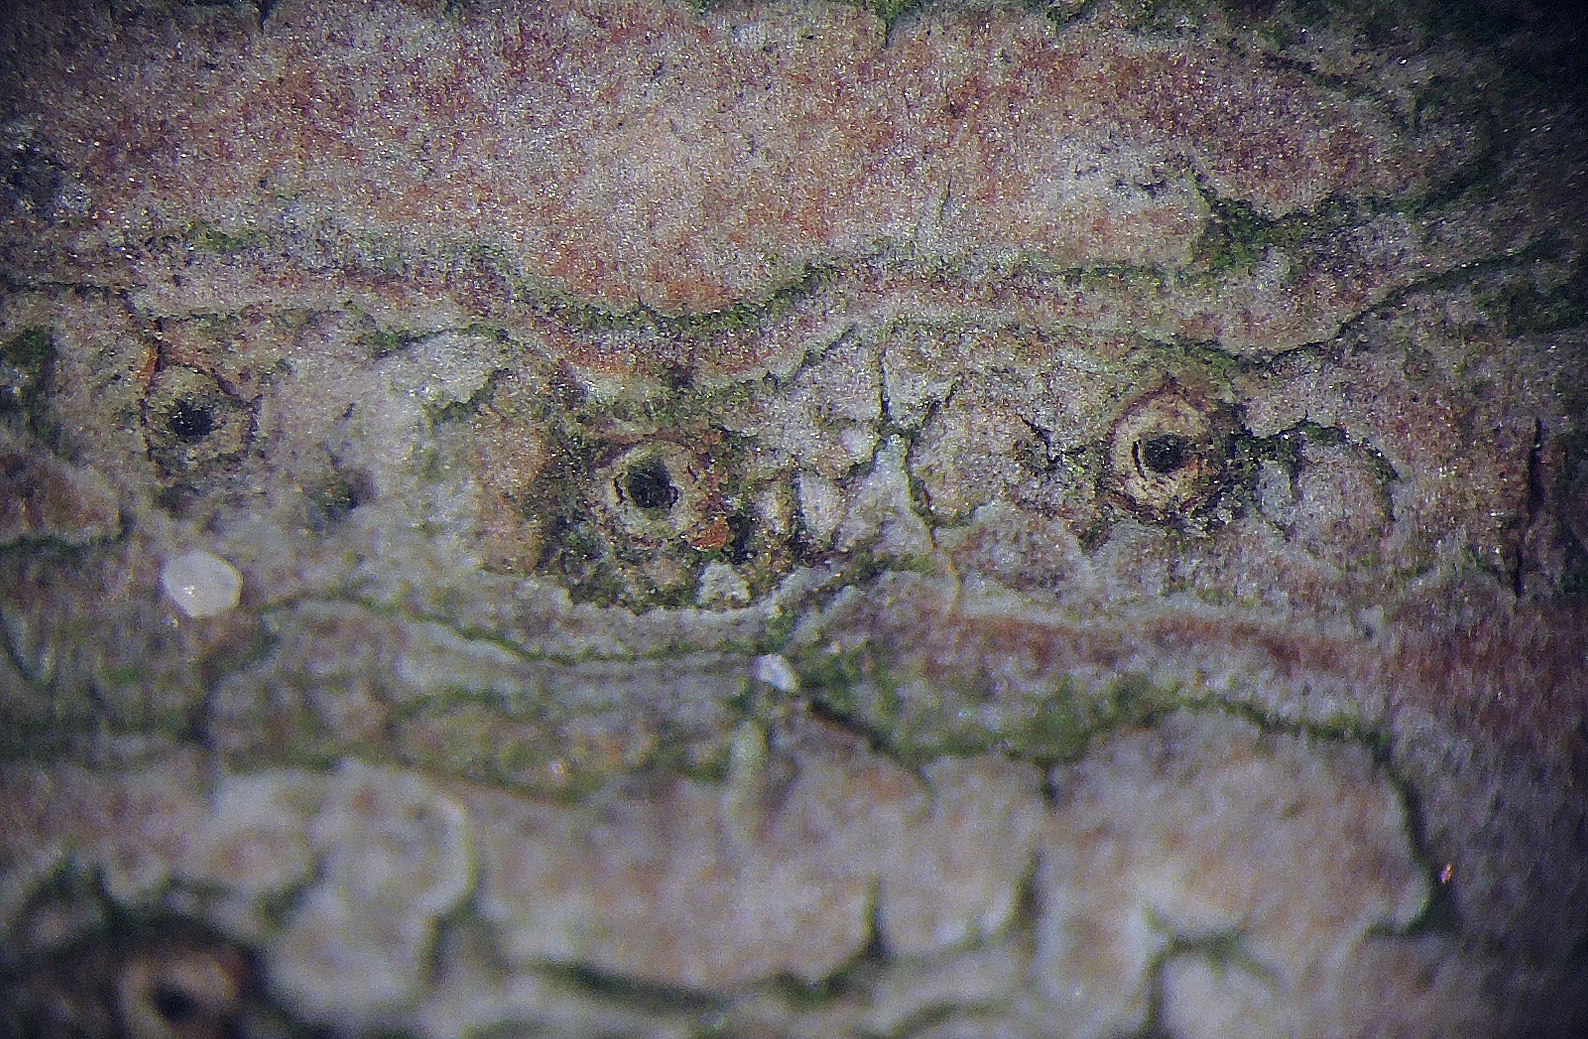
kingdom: Fungi
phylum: Ascomycota
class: Sordariomycetes
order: Diaporthales
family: Diaporthaceae
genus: Diaporthe
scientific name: Diaporthe oncostoma
